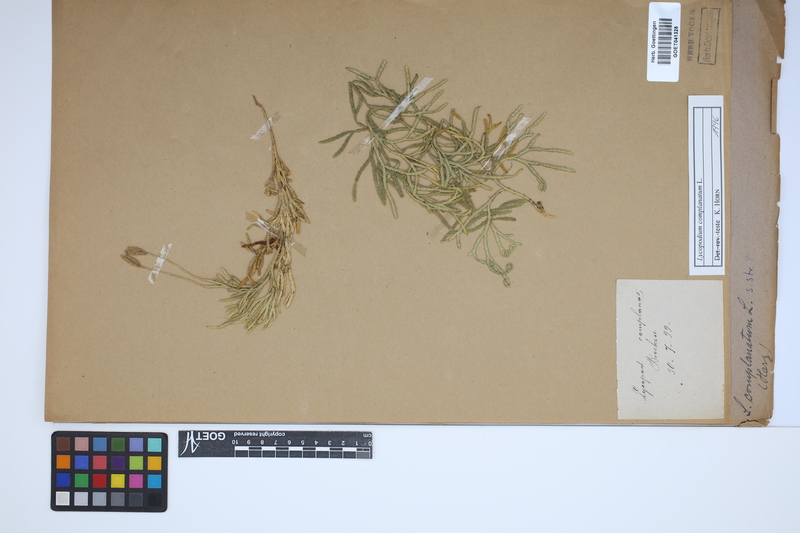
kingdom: Plantae
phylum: Tracheophyta
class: Lycopodiopsida
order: Lycopodiales
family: Lycopodiaceae
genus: Diphasiastrum
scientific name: Diphasiastrum complanatum
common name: Northern running-pine
